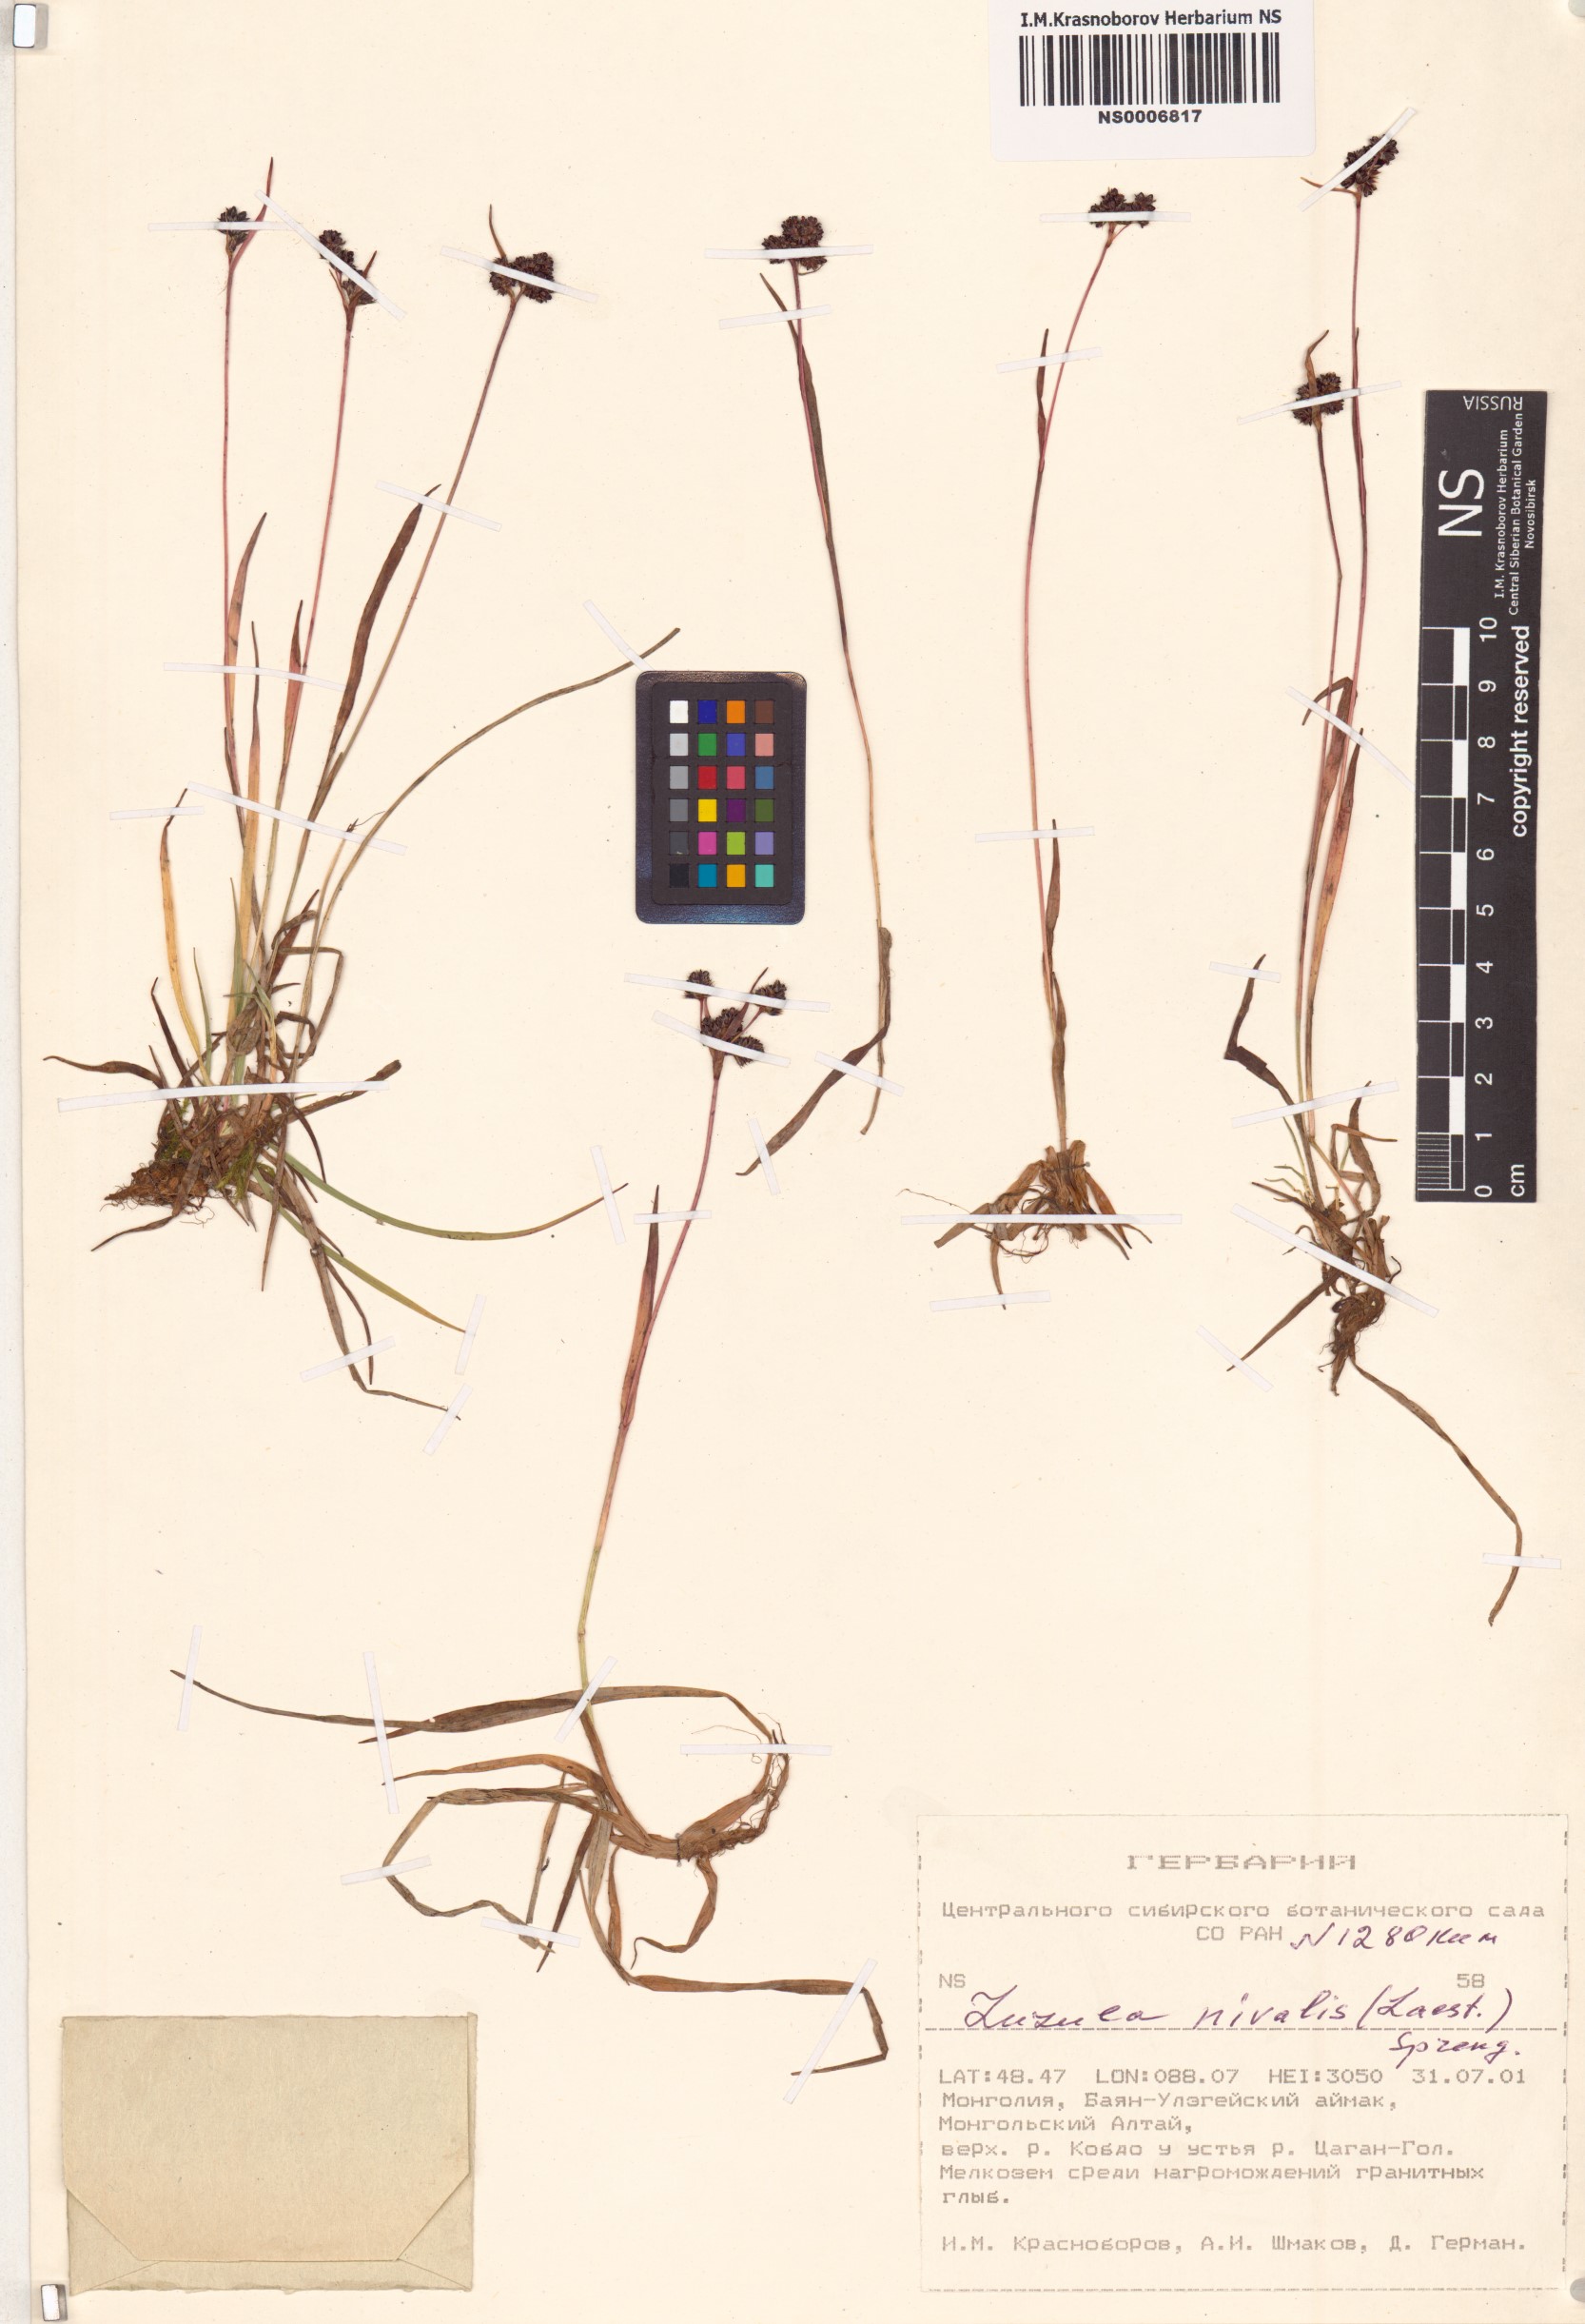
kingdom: Plantae
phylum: Tracheophyta
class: Liliopsida
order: Poales
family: Juncaceae
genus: Luzula
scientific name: Luzula nivalis
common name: Arctic woodrush
